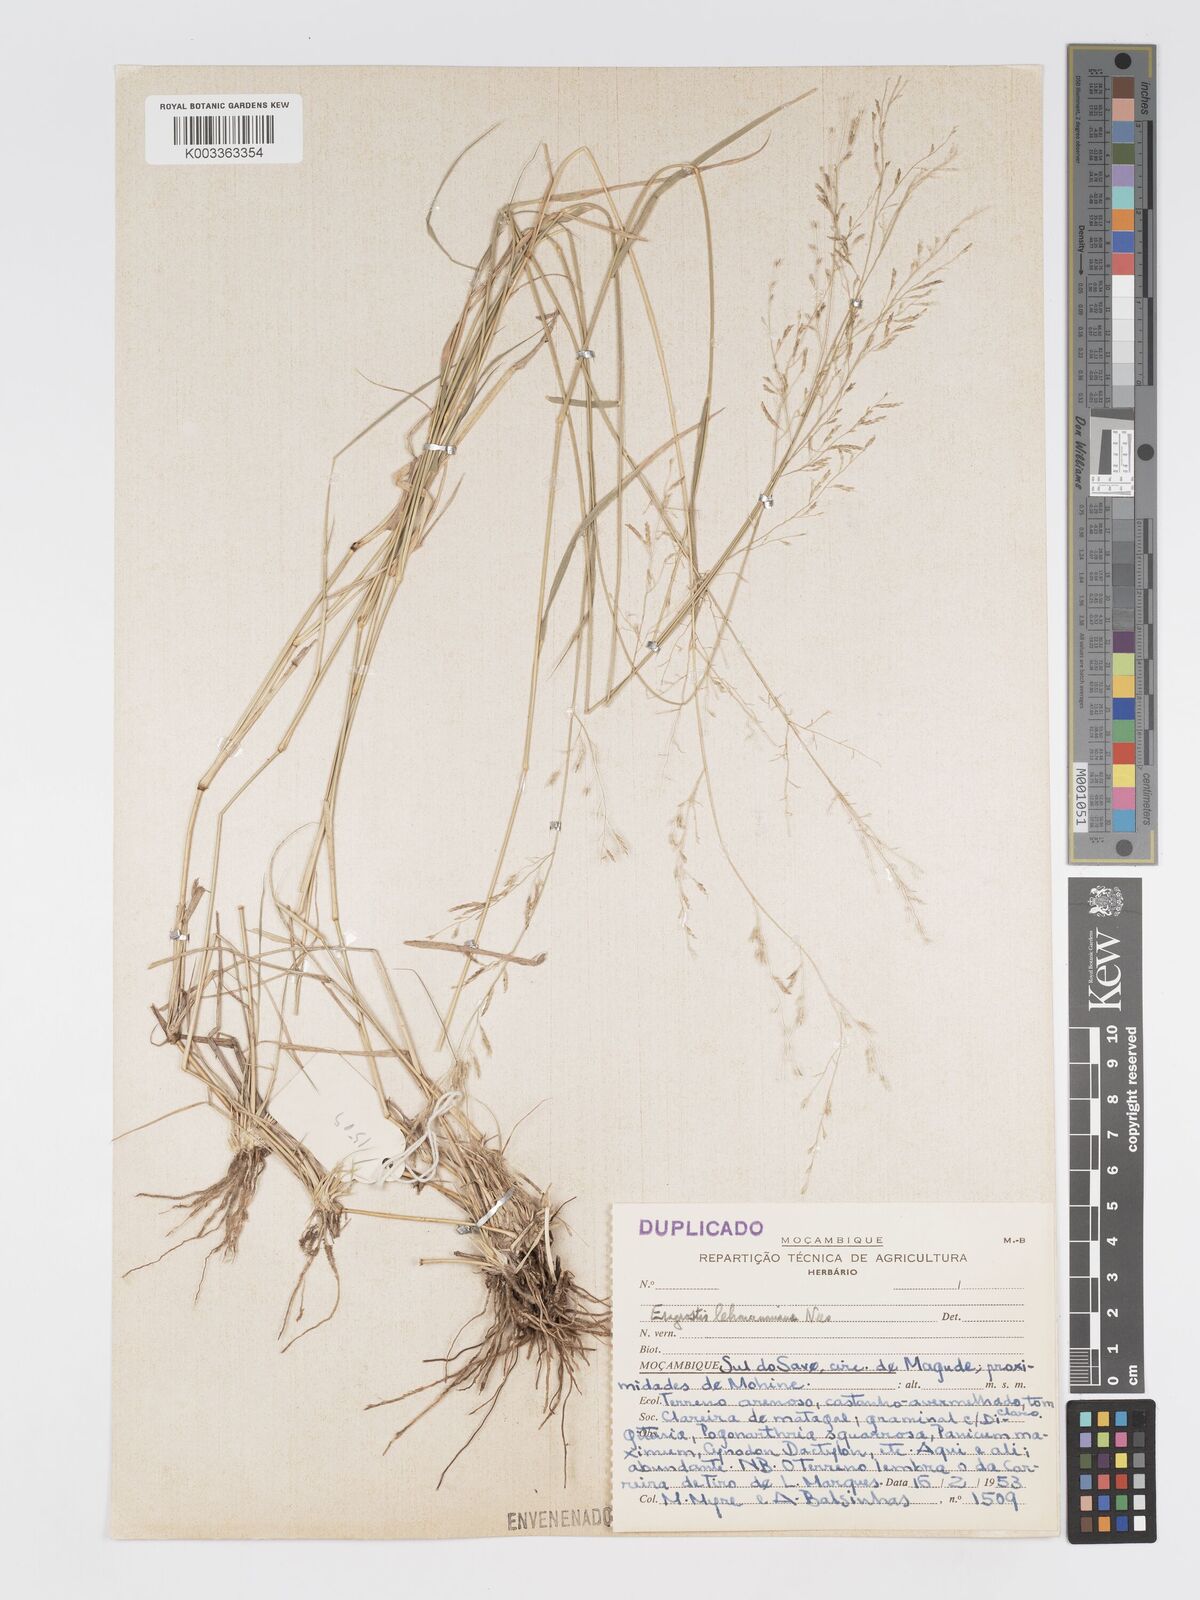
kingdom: Plantae
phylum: Tracheophyta
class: Liliopsida
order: Poales
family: Poaceae
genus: Eragrostis
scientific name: Eragrostis lehmanniana
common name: Lehmann lovegrass
